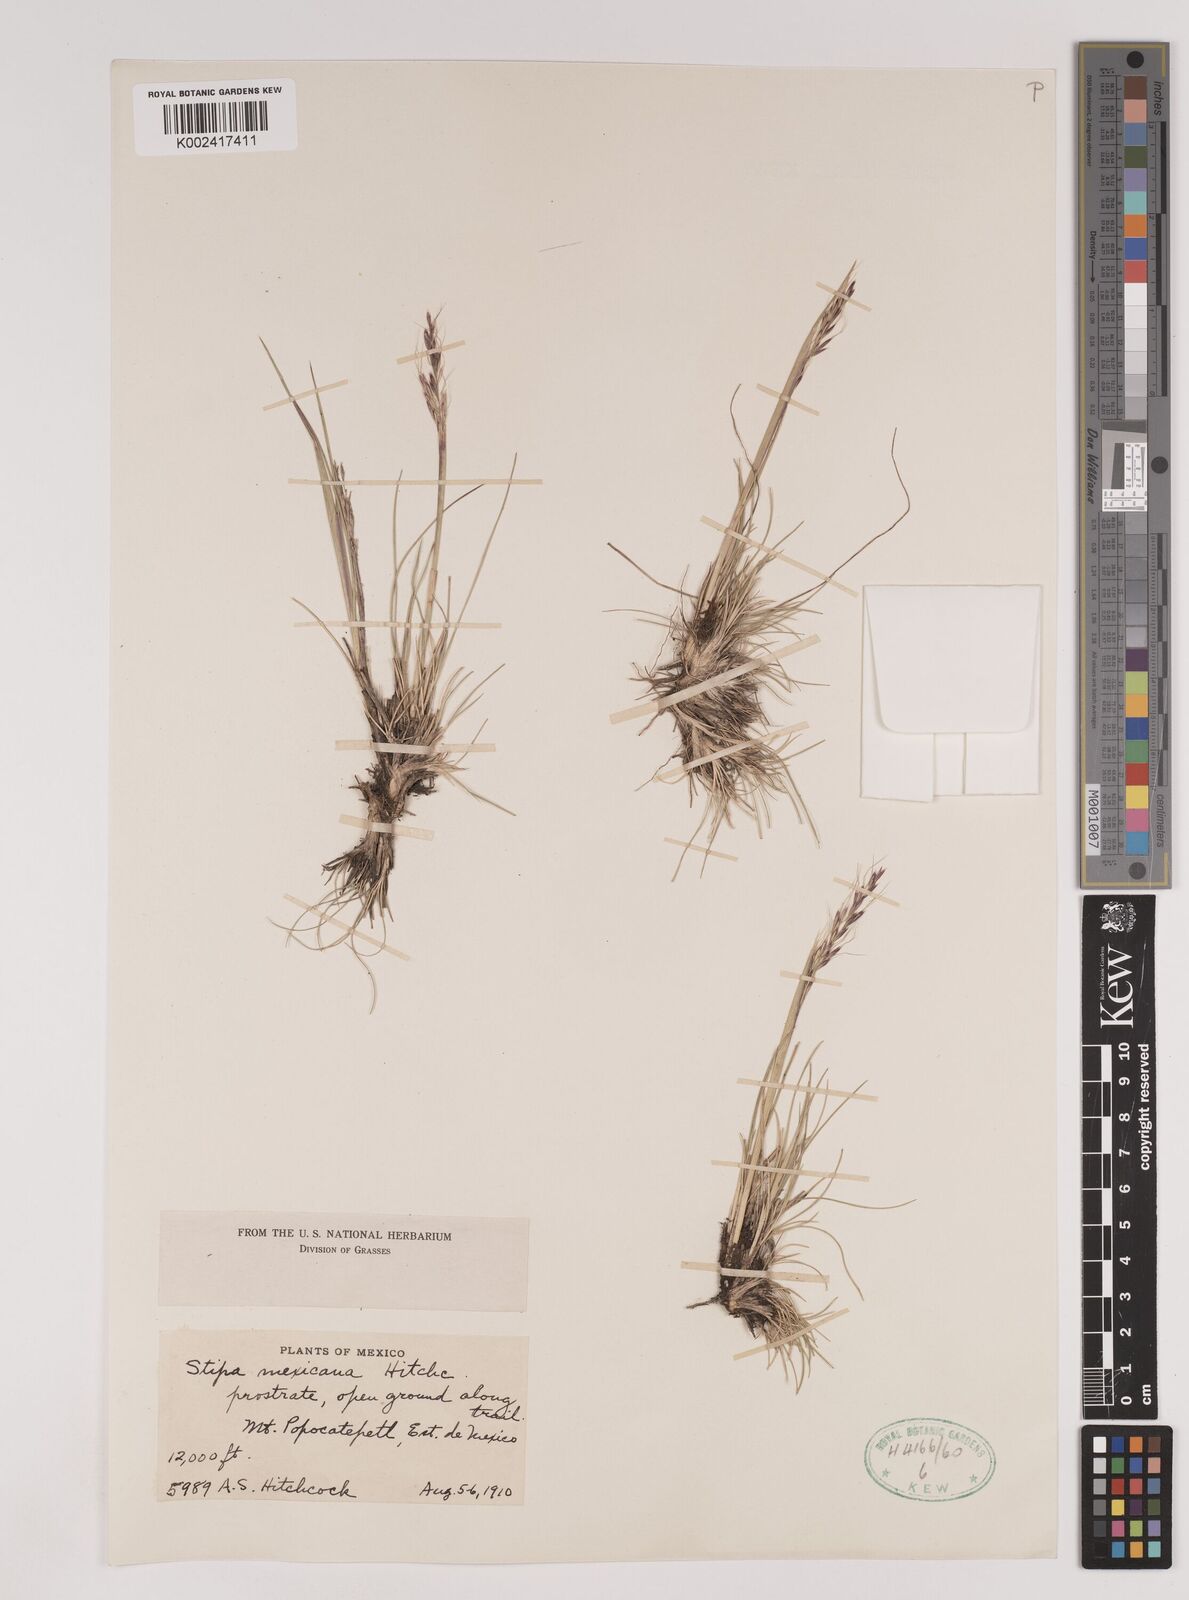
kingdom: Plantae
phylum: Tracheophyta
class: Liliopsida
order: Poales
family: Poaceae
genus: Nassella
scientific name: Nassella mexicana
